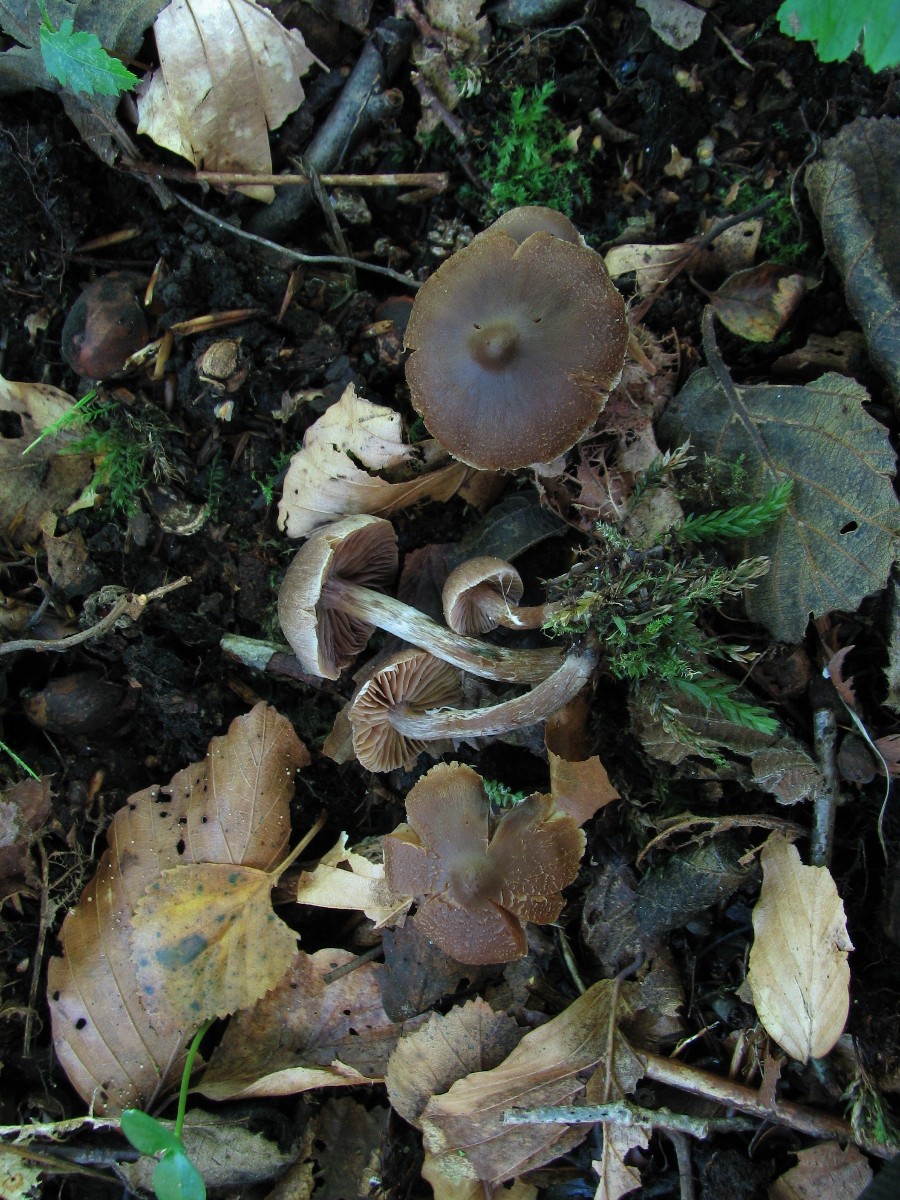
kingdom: Fungi
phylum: Basidiomycota
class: Agaricomycetes
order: Agaricales
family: Cortinariaceae
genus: Cortinarius
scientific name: Cortinarius decipiens
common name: blåsort slørhat
